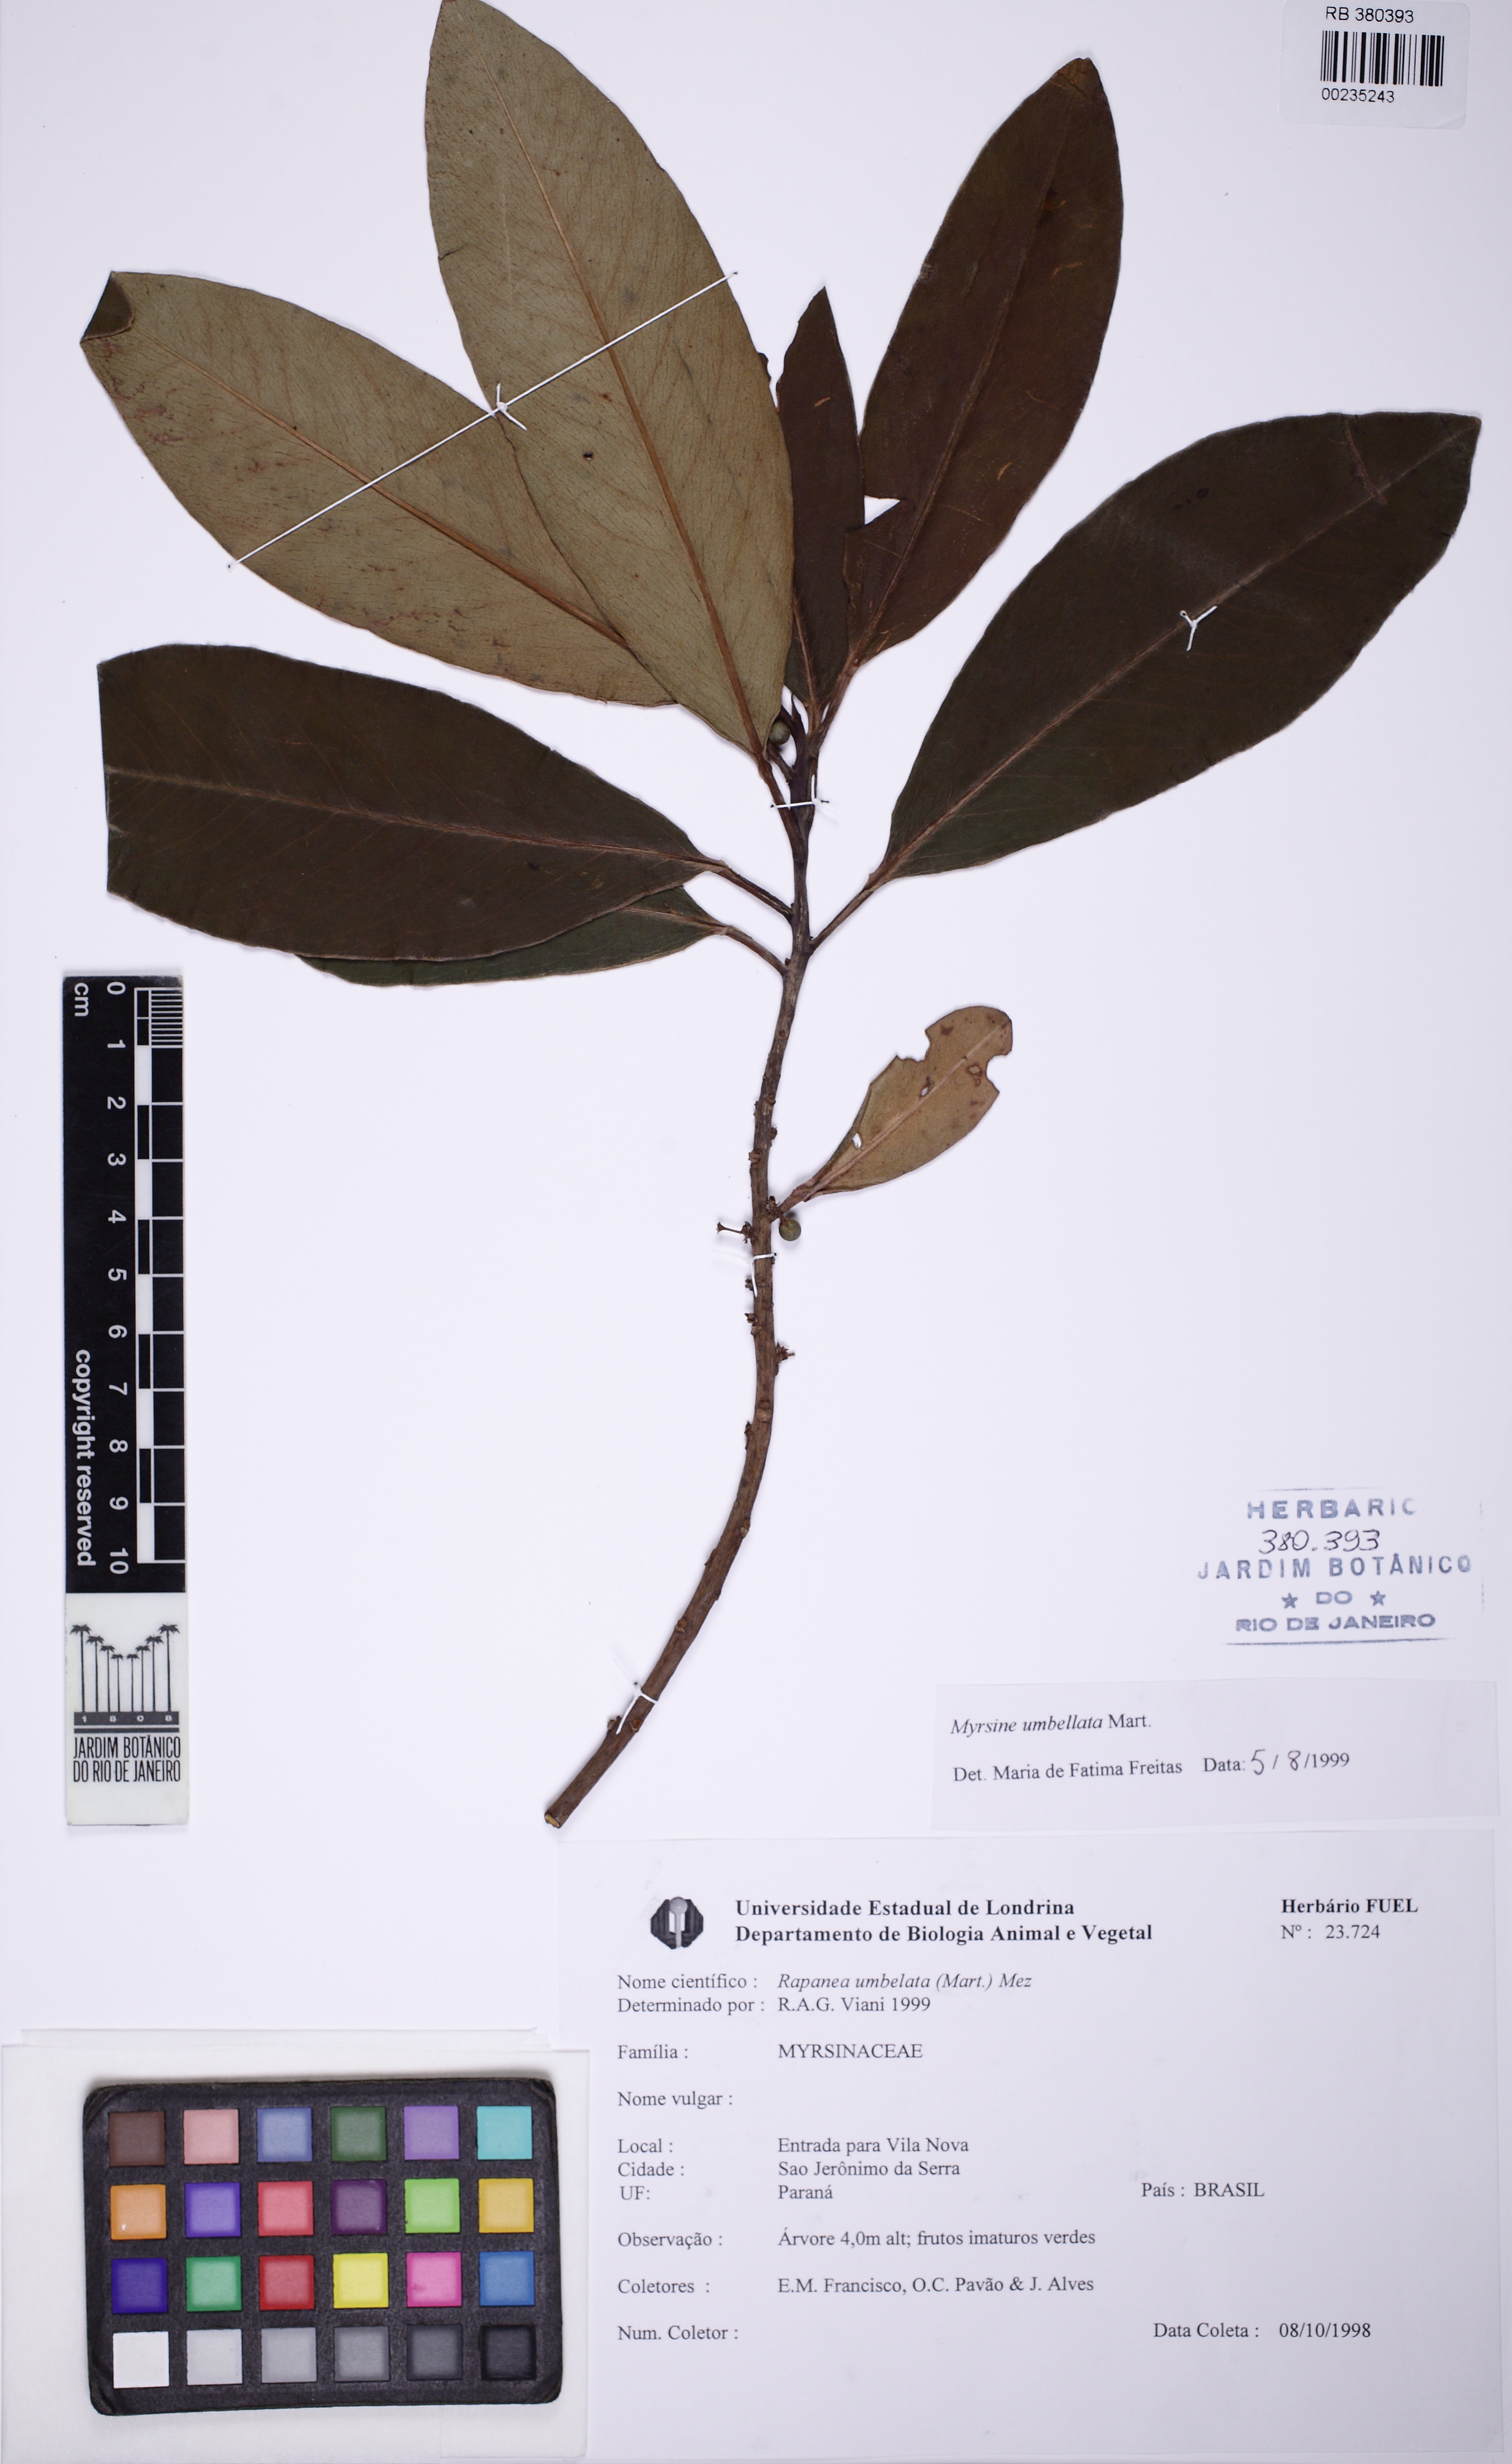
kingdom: Plantae
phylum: Tracheophyta
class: Magnoliopsida
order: Ericales
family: Primulaceae
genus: Myrsine
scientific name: Myrsine umbellata
